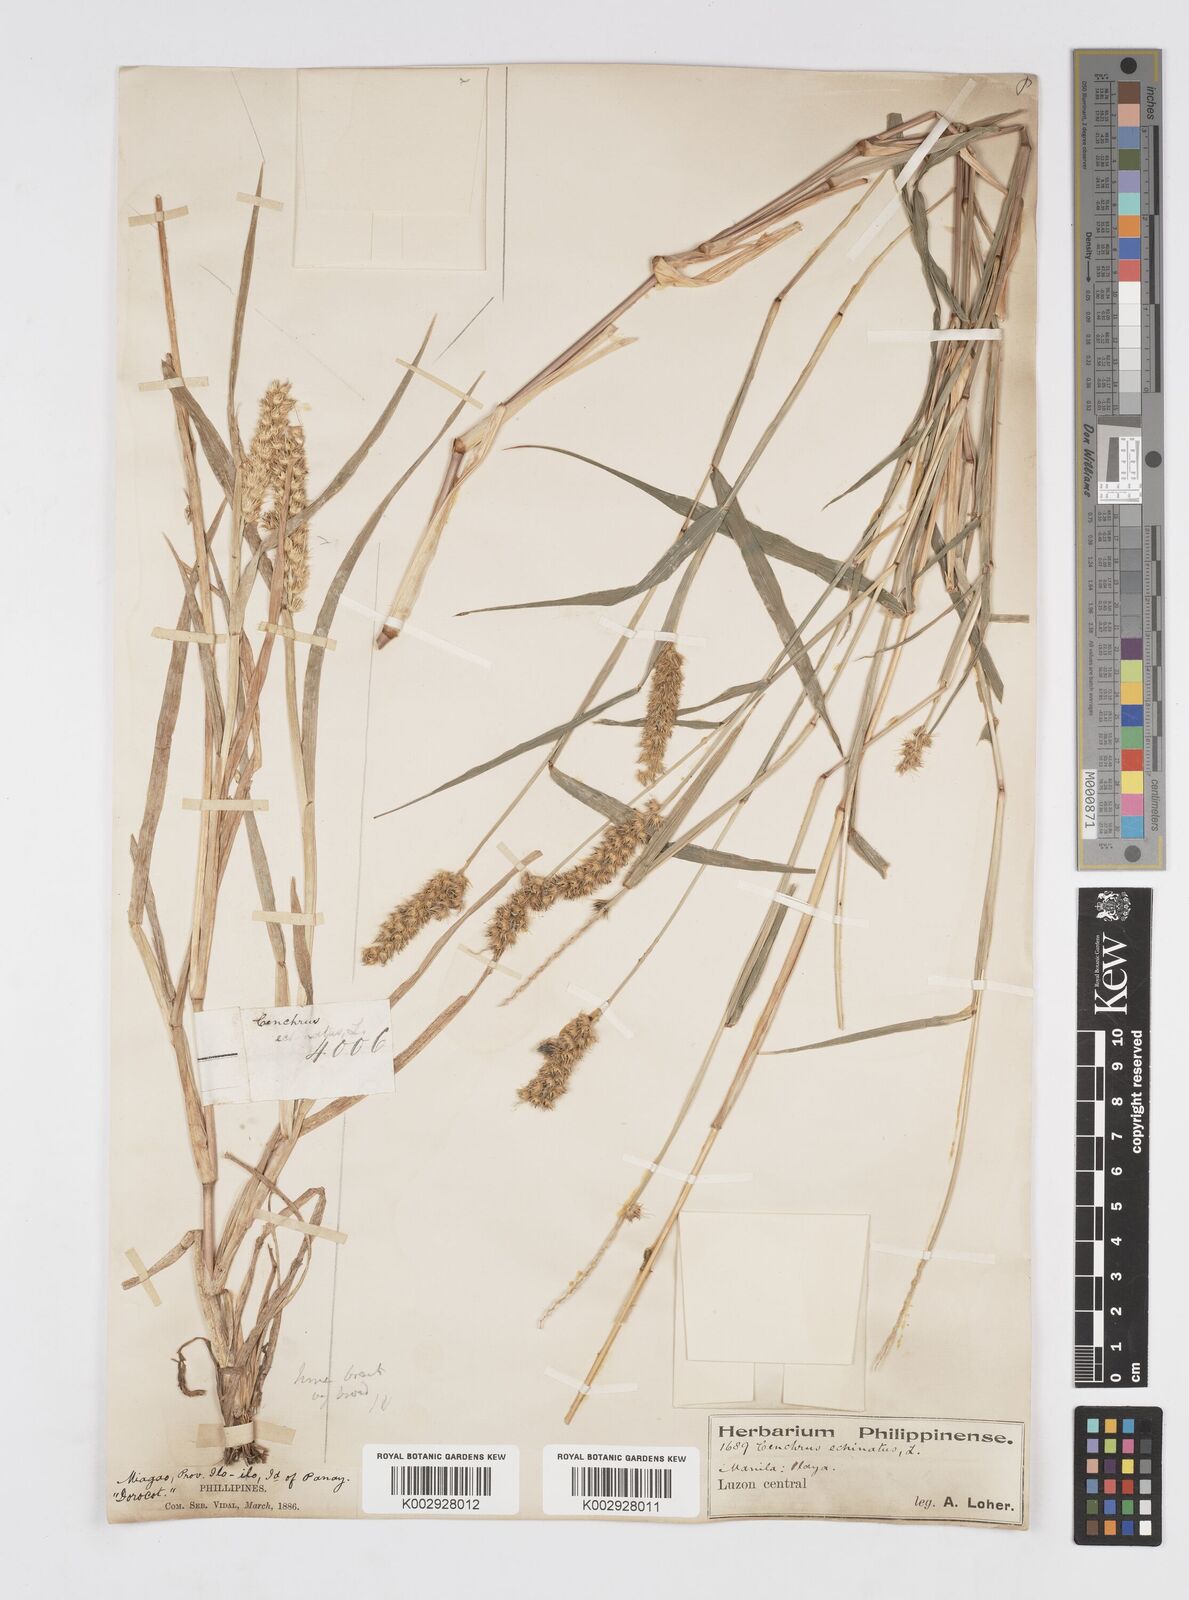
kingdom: Plantae
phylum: Tracheophyta
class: Liliopsida
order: Poales
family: Poaceae
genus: Cenchrus
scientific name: Cenchrus brownii
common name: Slim-bristle sandbur
